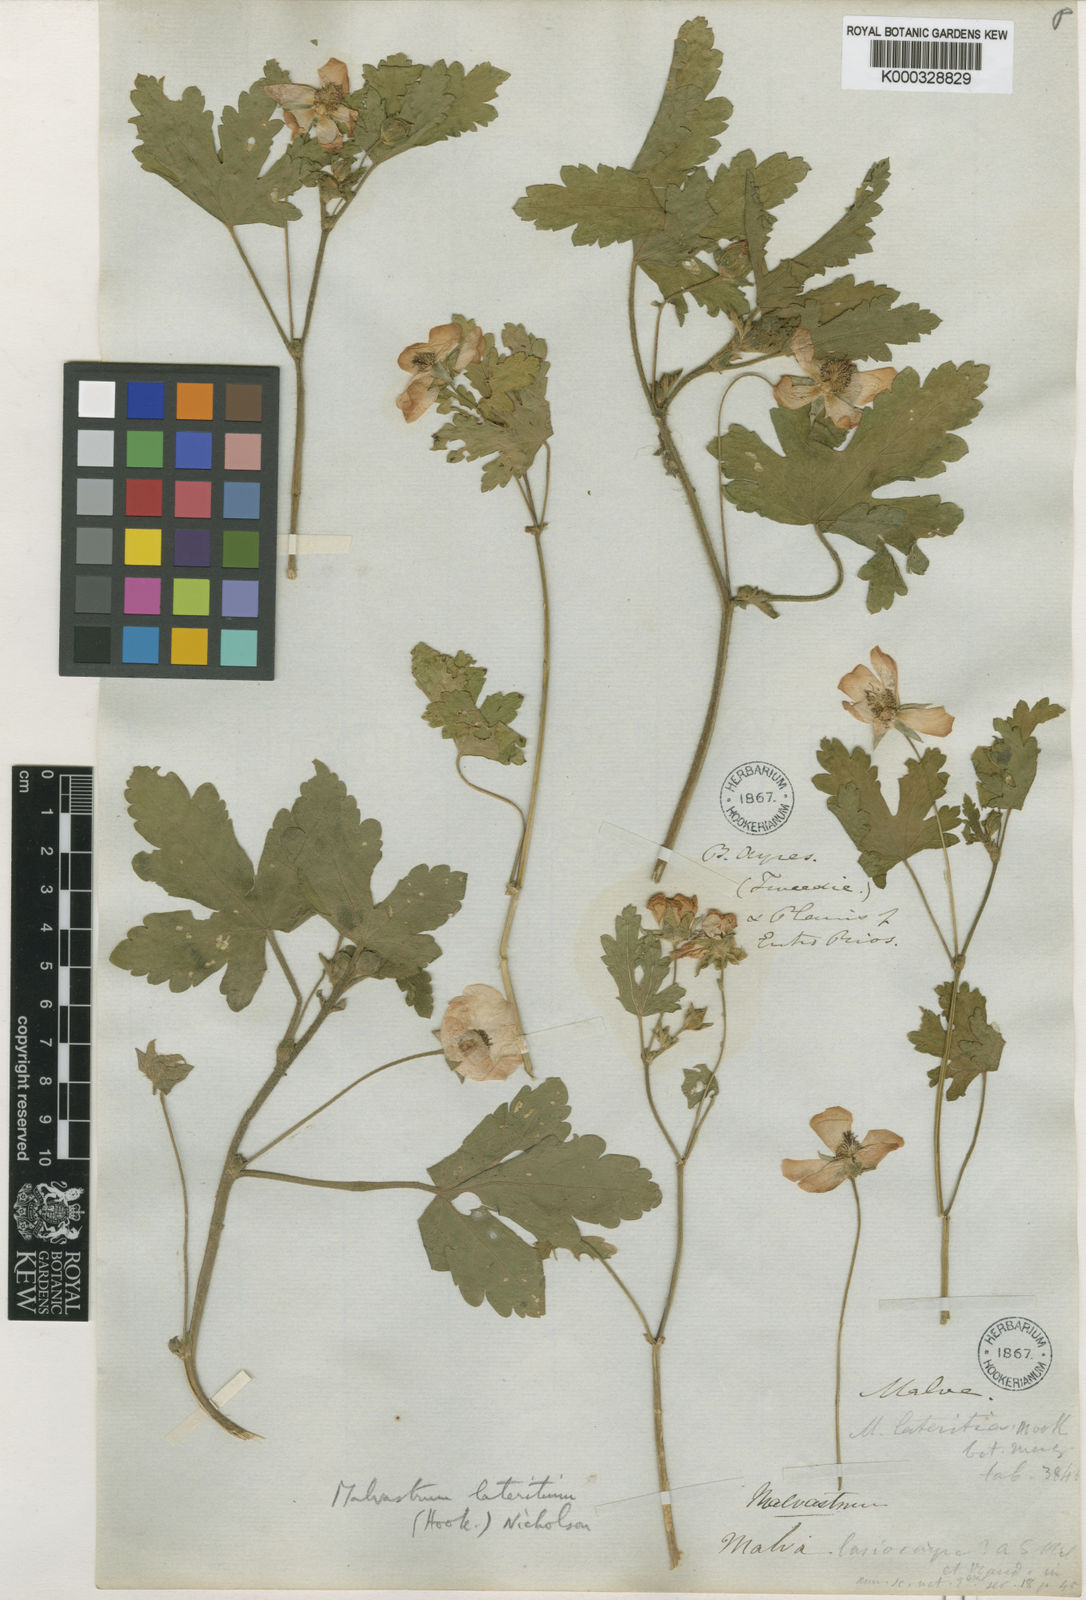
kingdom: Plantae
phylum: Tracheophyta
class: Magnoliopsida
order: Malvales
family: Malvaceae
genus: Modiolastrum
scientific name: Modiolastrum lateritium
